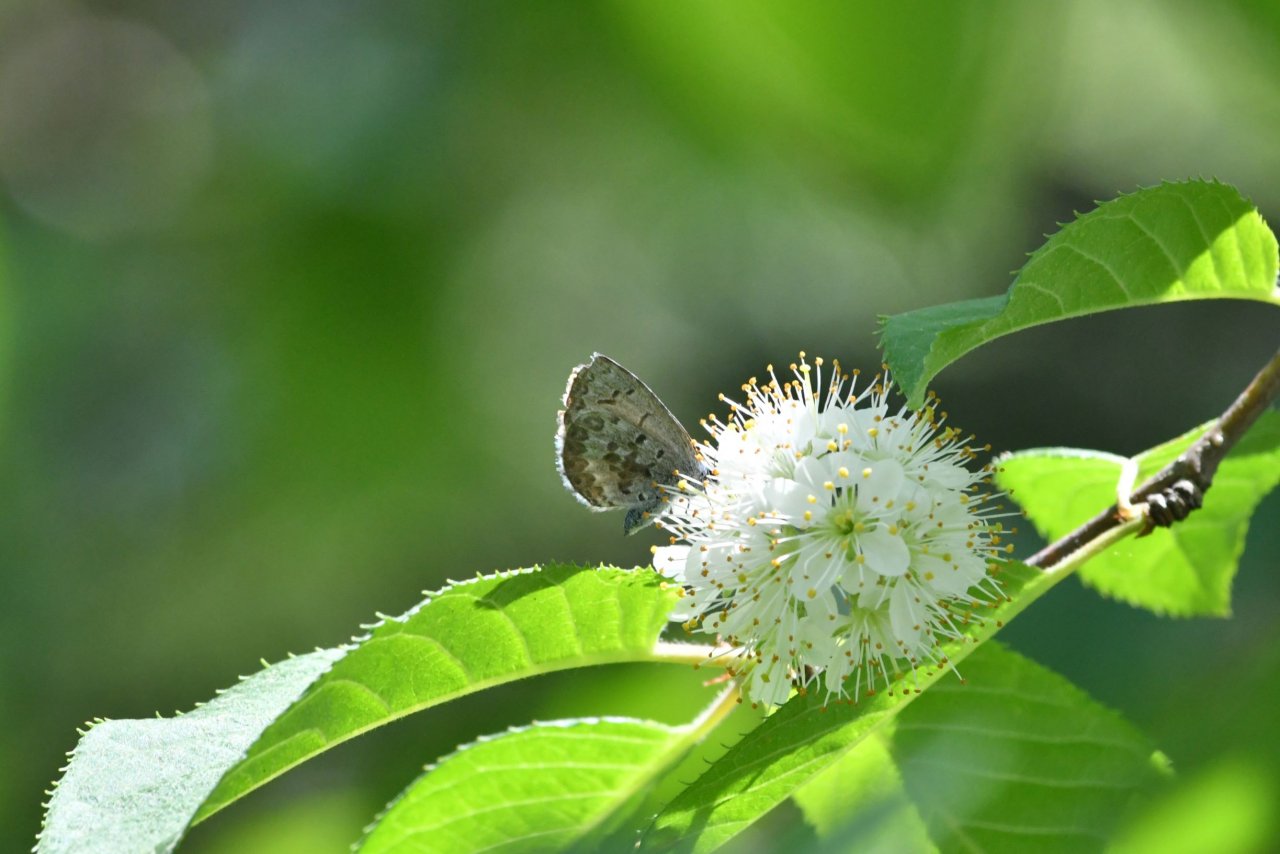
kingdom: Animalia
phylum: Arthropoda
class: Insecta
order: Lepidoptera
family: Lycaenidae
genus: Celastrina
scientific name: Celastrina lucia
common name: Northern Spring Azure
